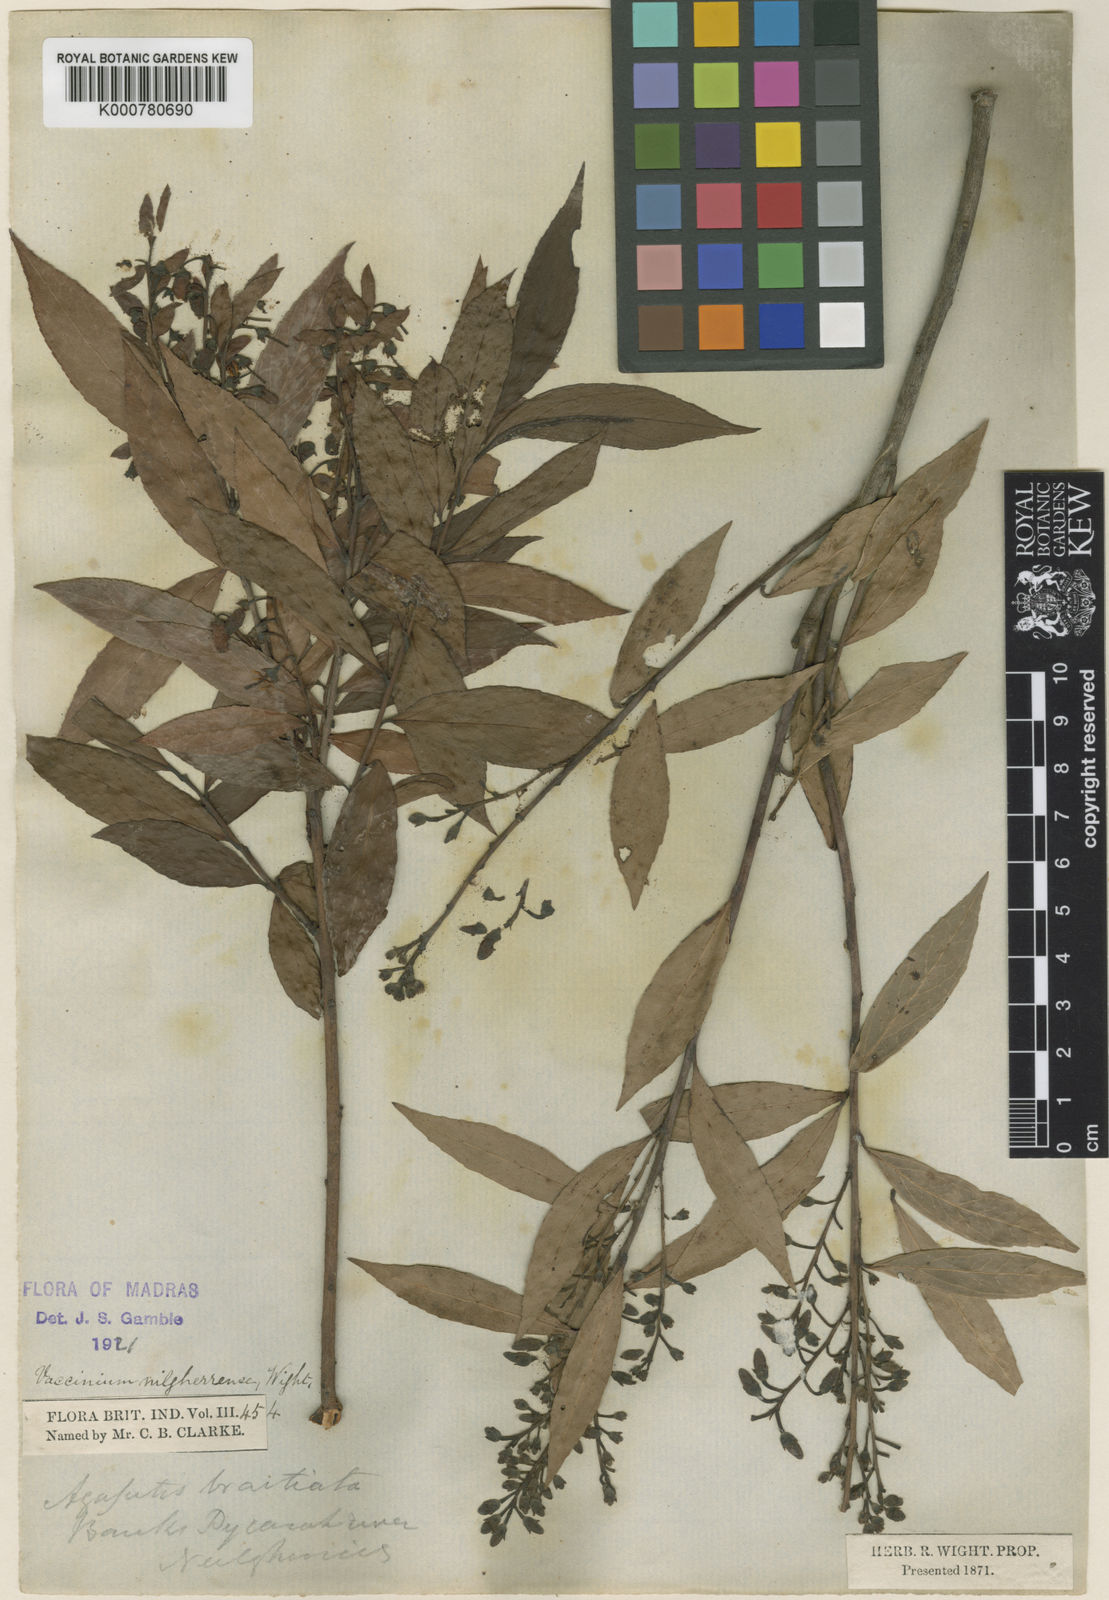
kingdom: Plantae
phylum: Tracheophyta
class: Magnoliopsida
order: Ericales
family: Ericaceae
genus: Vaccinium
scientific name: Vaccinium neilgherrense
